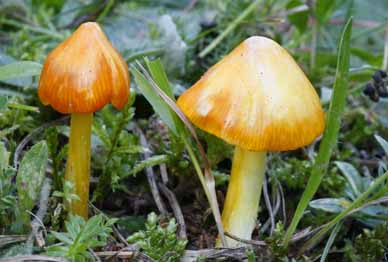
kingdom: Fungi
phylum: Basidiomycota
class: Agaricomycetes
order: Agaricales
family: Hygrophoraceae
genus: Hygrocybe
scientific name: Hygrocybe acutoconica
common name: spidspuklet vokshat
